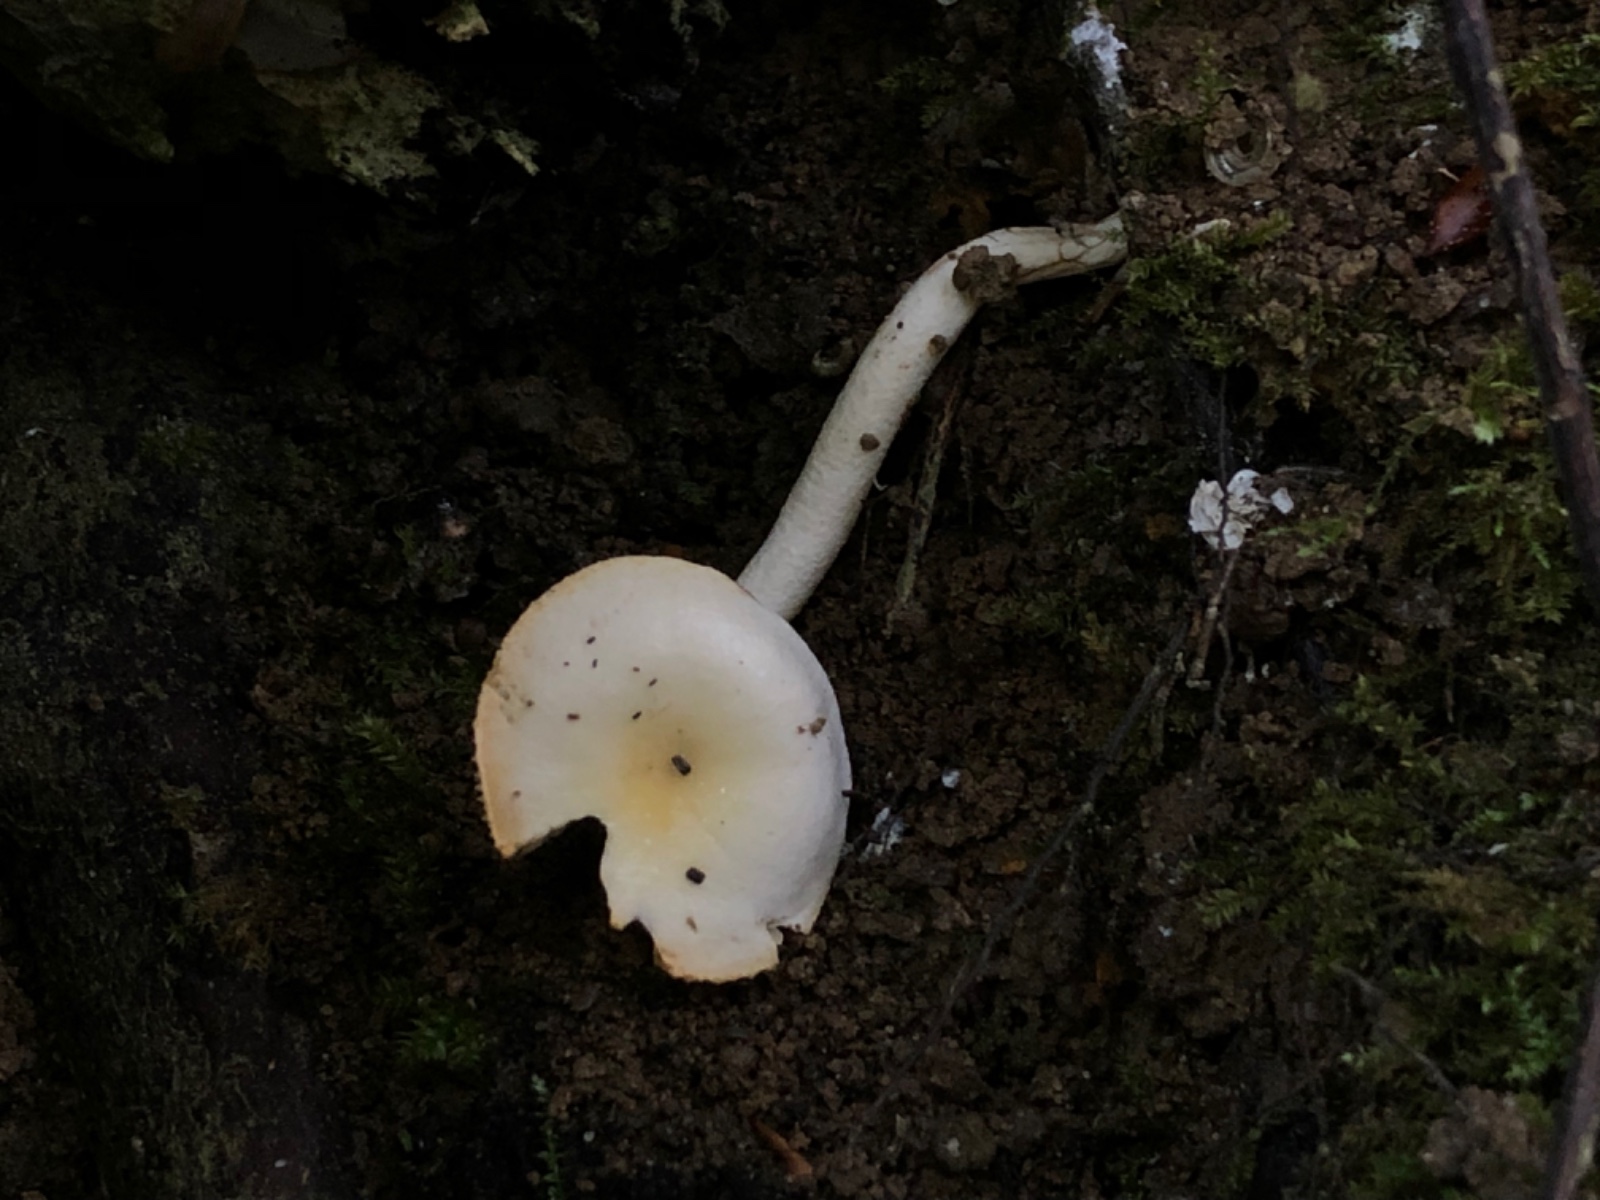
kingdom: Fungi
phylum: Basidiomycota
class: Agaricomycetes
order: Agaricales
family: Hygrophoraceae
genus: Hygrophorus
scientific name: Hygrophorus unicolor
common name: orangeøjet sneglehat
